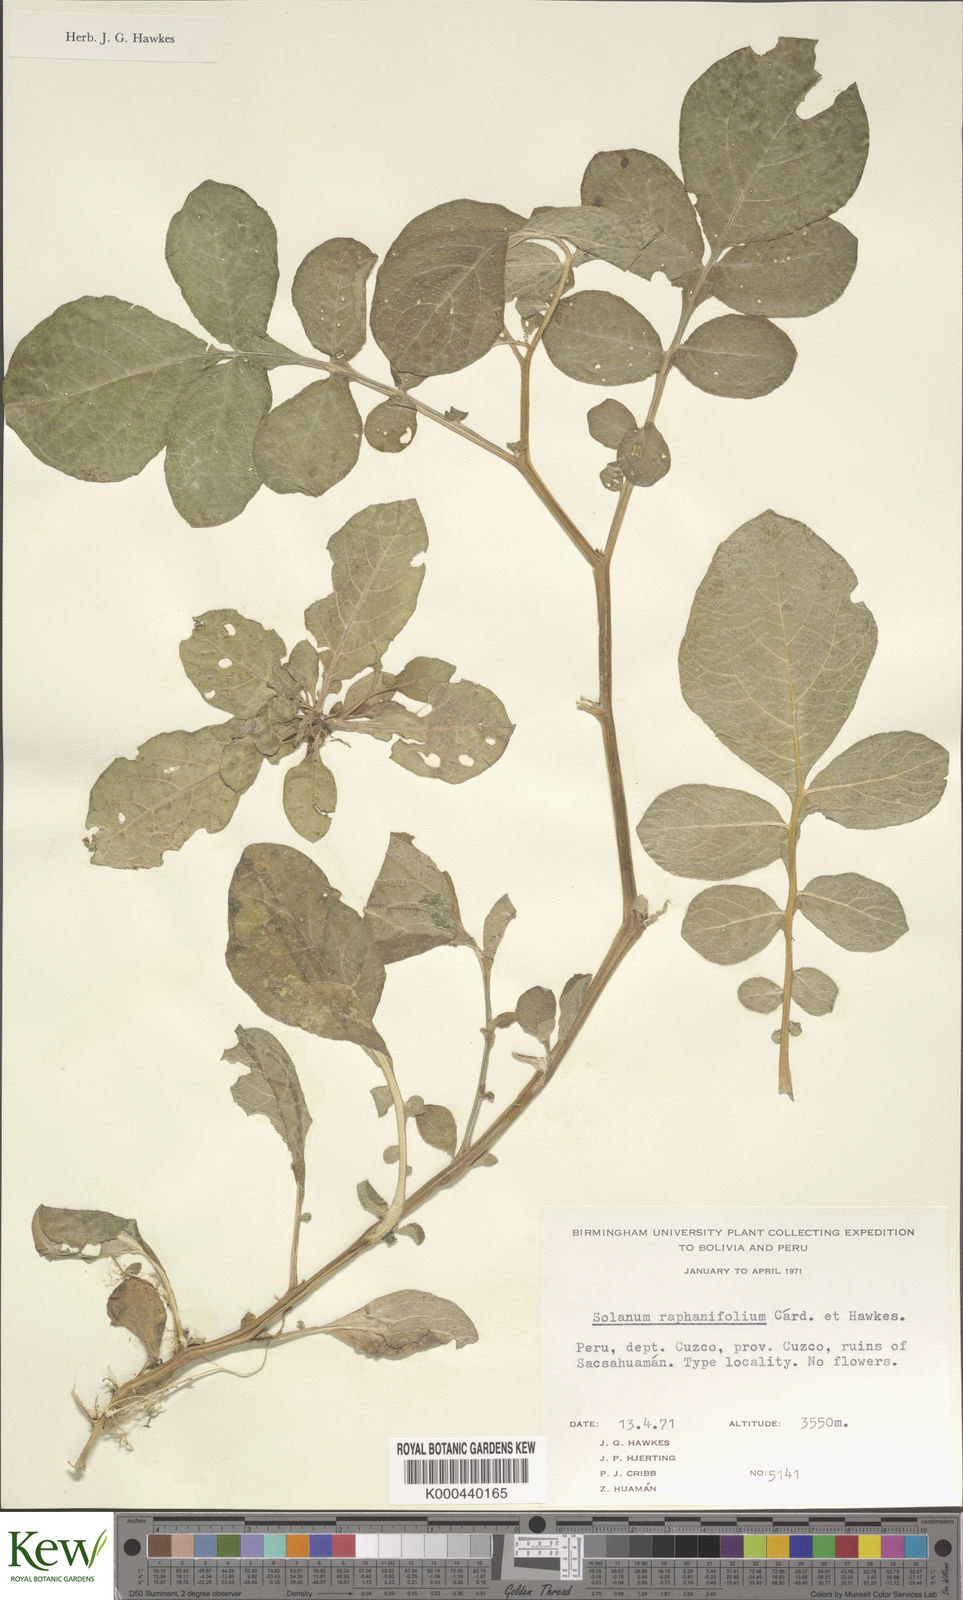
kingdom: Plantae
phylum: Tracheophyta
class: Magnoliopsida
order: Solanales
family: Solanaceae
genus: Solanum
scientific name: Solanum raphanifolium
